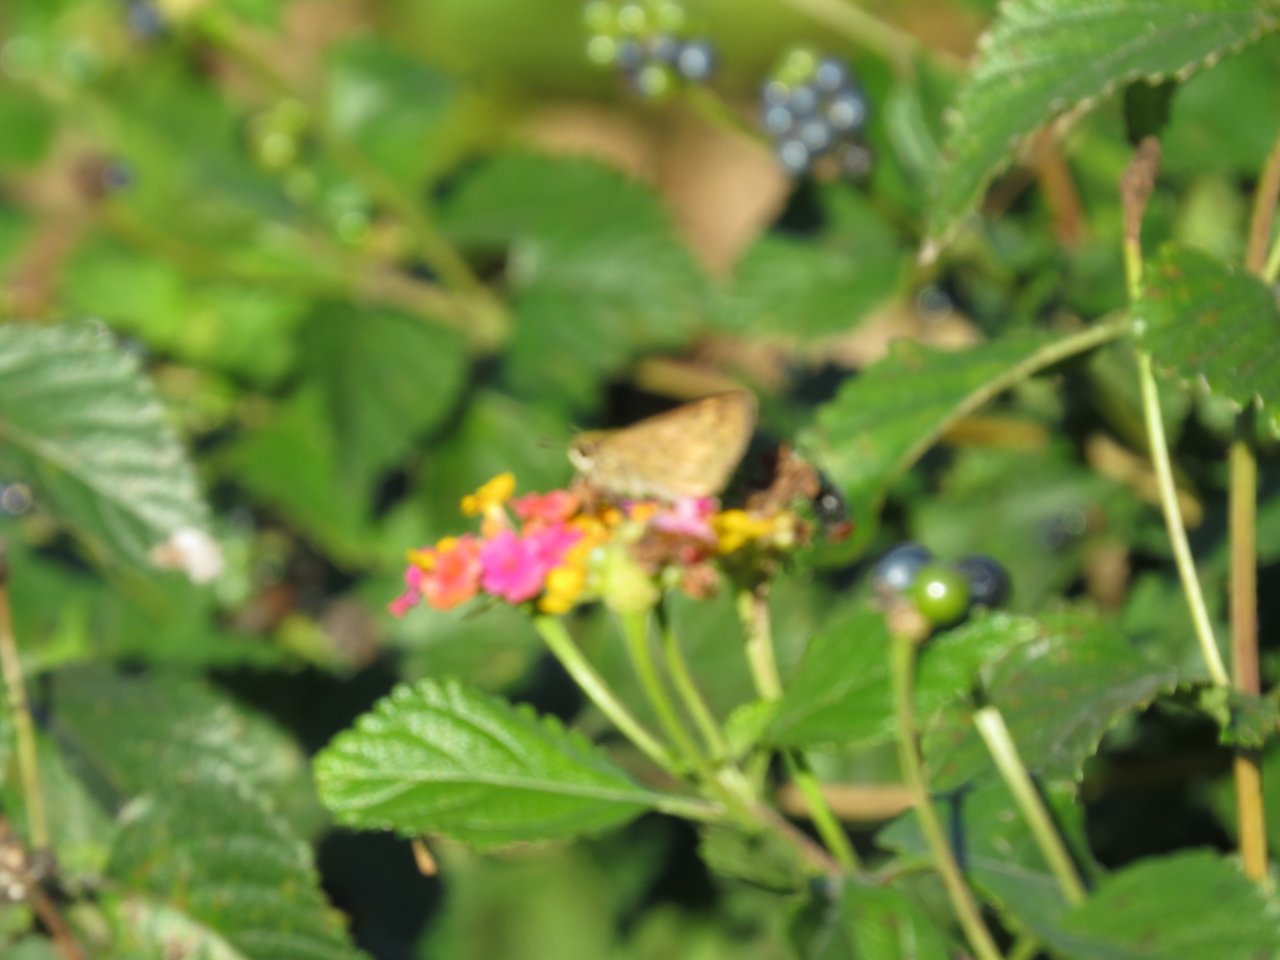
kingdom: Animalia
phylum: Arthropoda
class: Insecta
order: Lepidoptera
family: Hesperiidae
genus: Hylephila
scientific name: Hylephila phyleus
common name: Fiery Skipper
